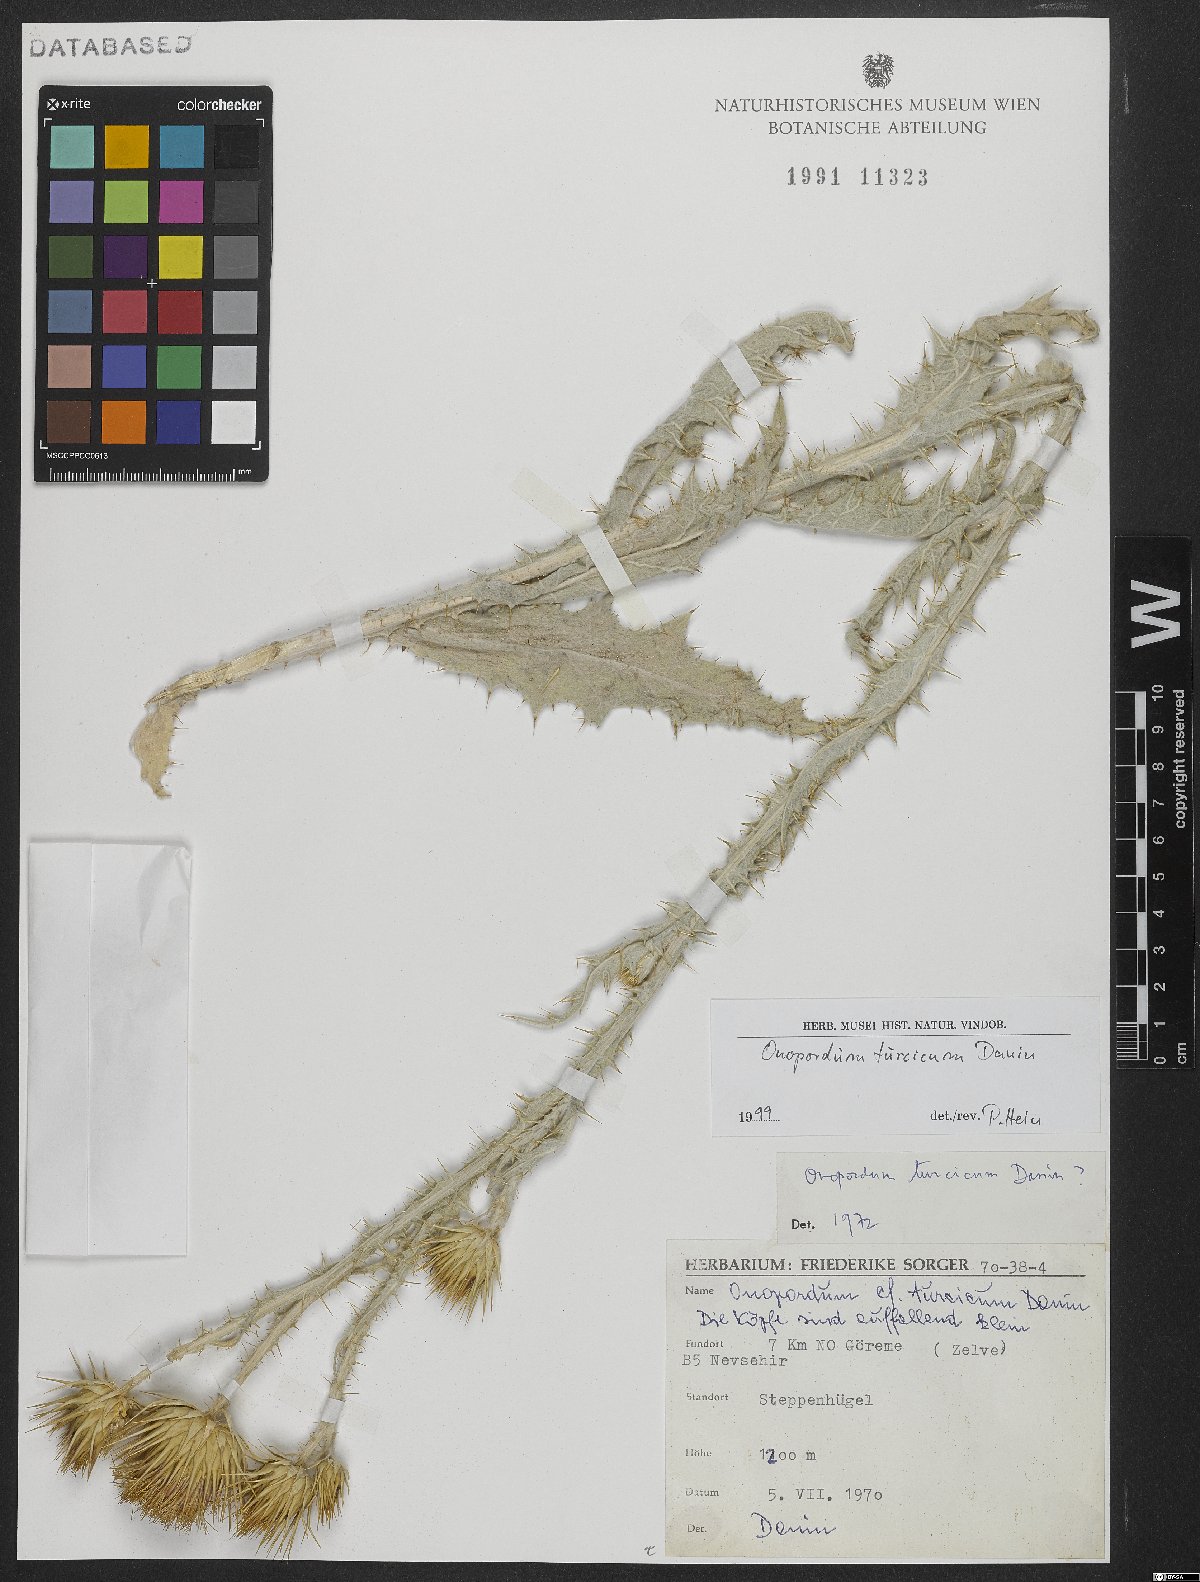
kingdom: Plantae
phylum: Tracheophyta
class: Magnoliopsida
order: Asterales
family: Asteraceae
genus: Onopordum
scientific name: Onopordum turcicum
